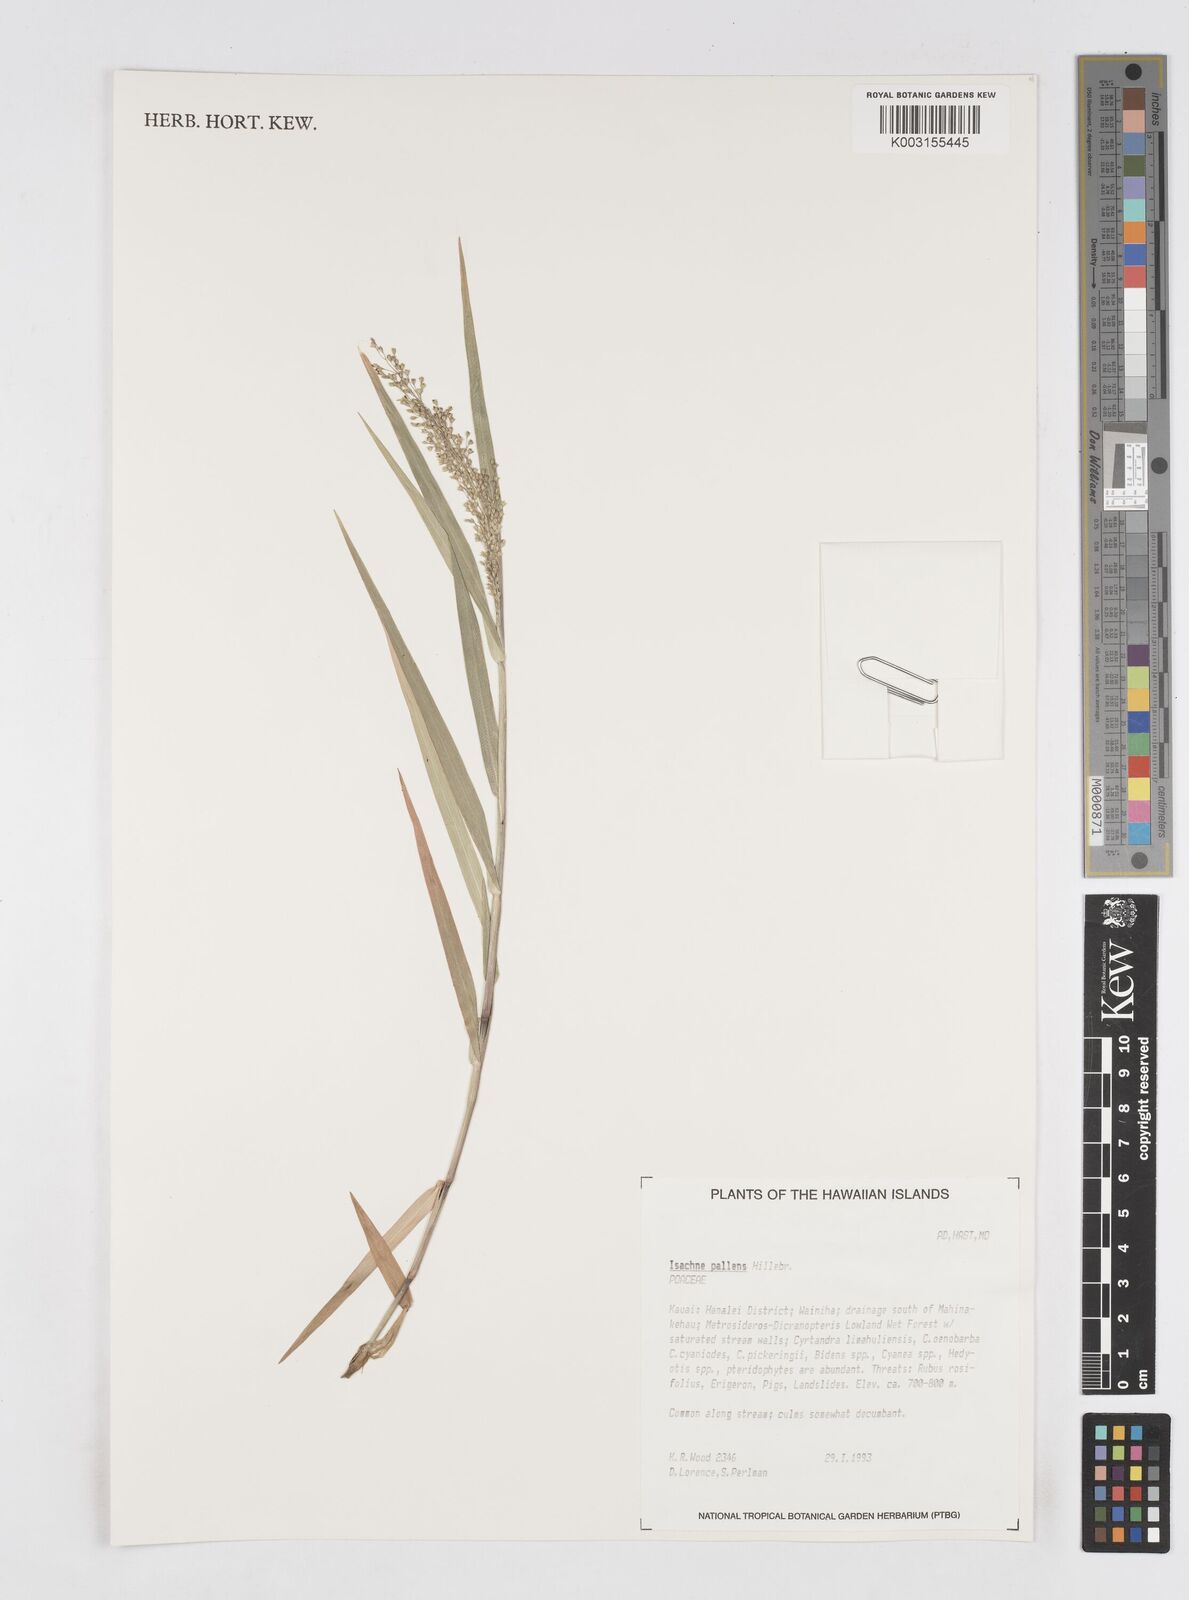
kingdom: Plantae
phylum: Tracheophyta
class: Liliopsida
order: Poales
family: Poaceae
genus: Isachne
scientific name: Isachne pallens
